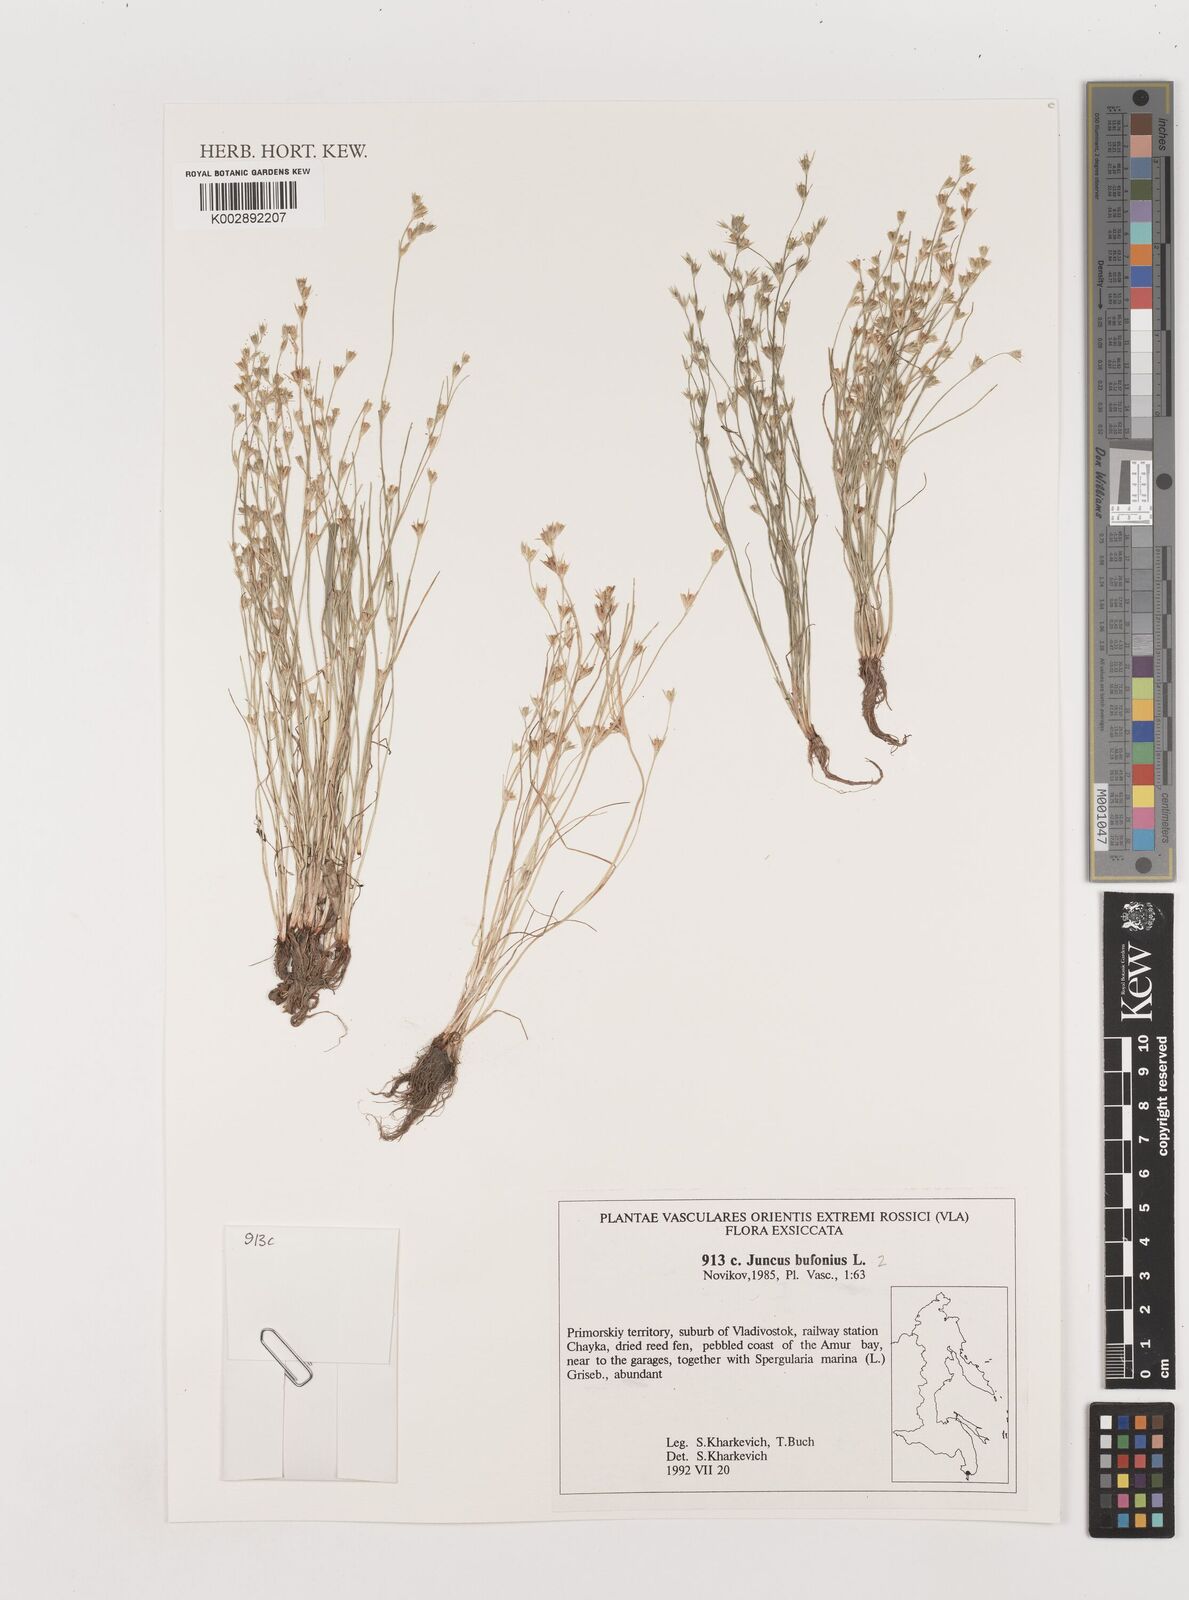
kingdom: Plantae
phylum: Tracheophyta
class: Liliopsida
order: Poales
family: Juncaceae
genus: Juncus
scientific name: Juncus bufonius
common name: Toad rush
